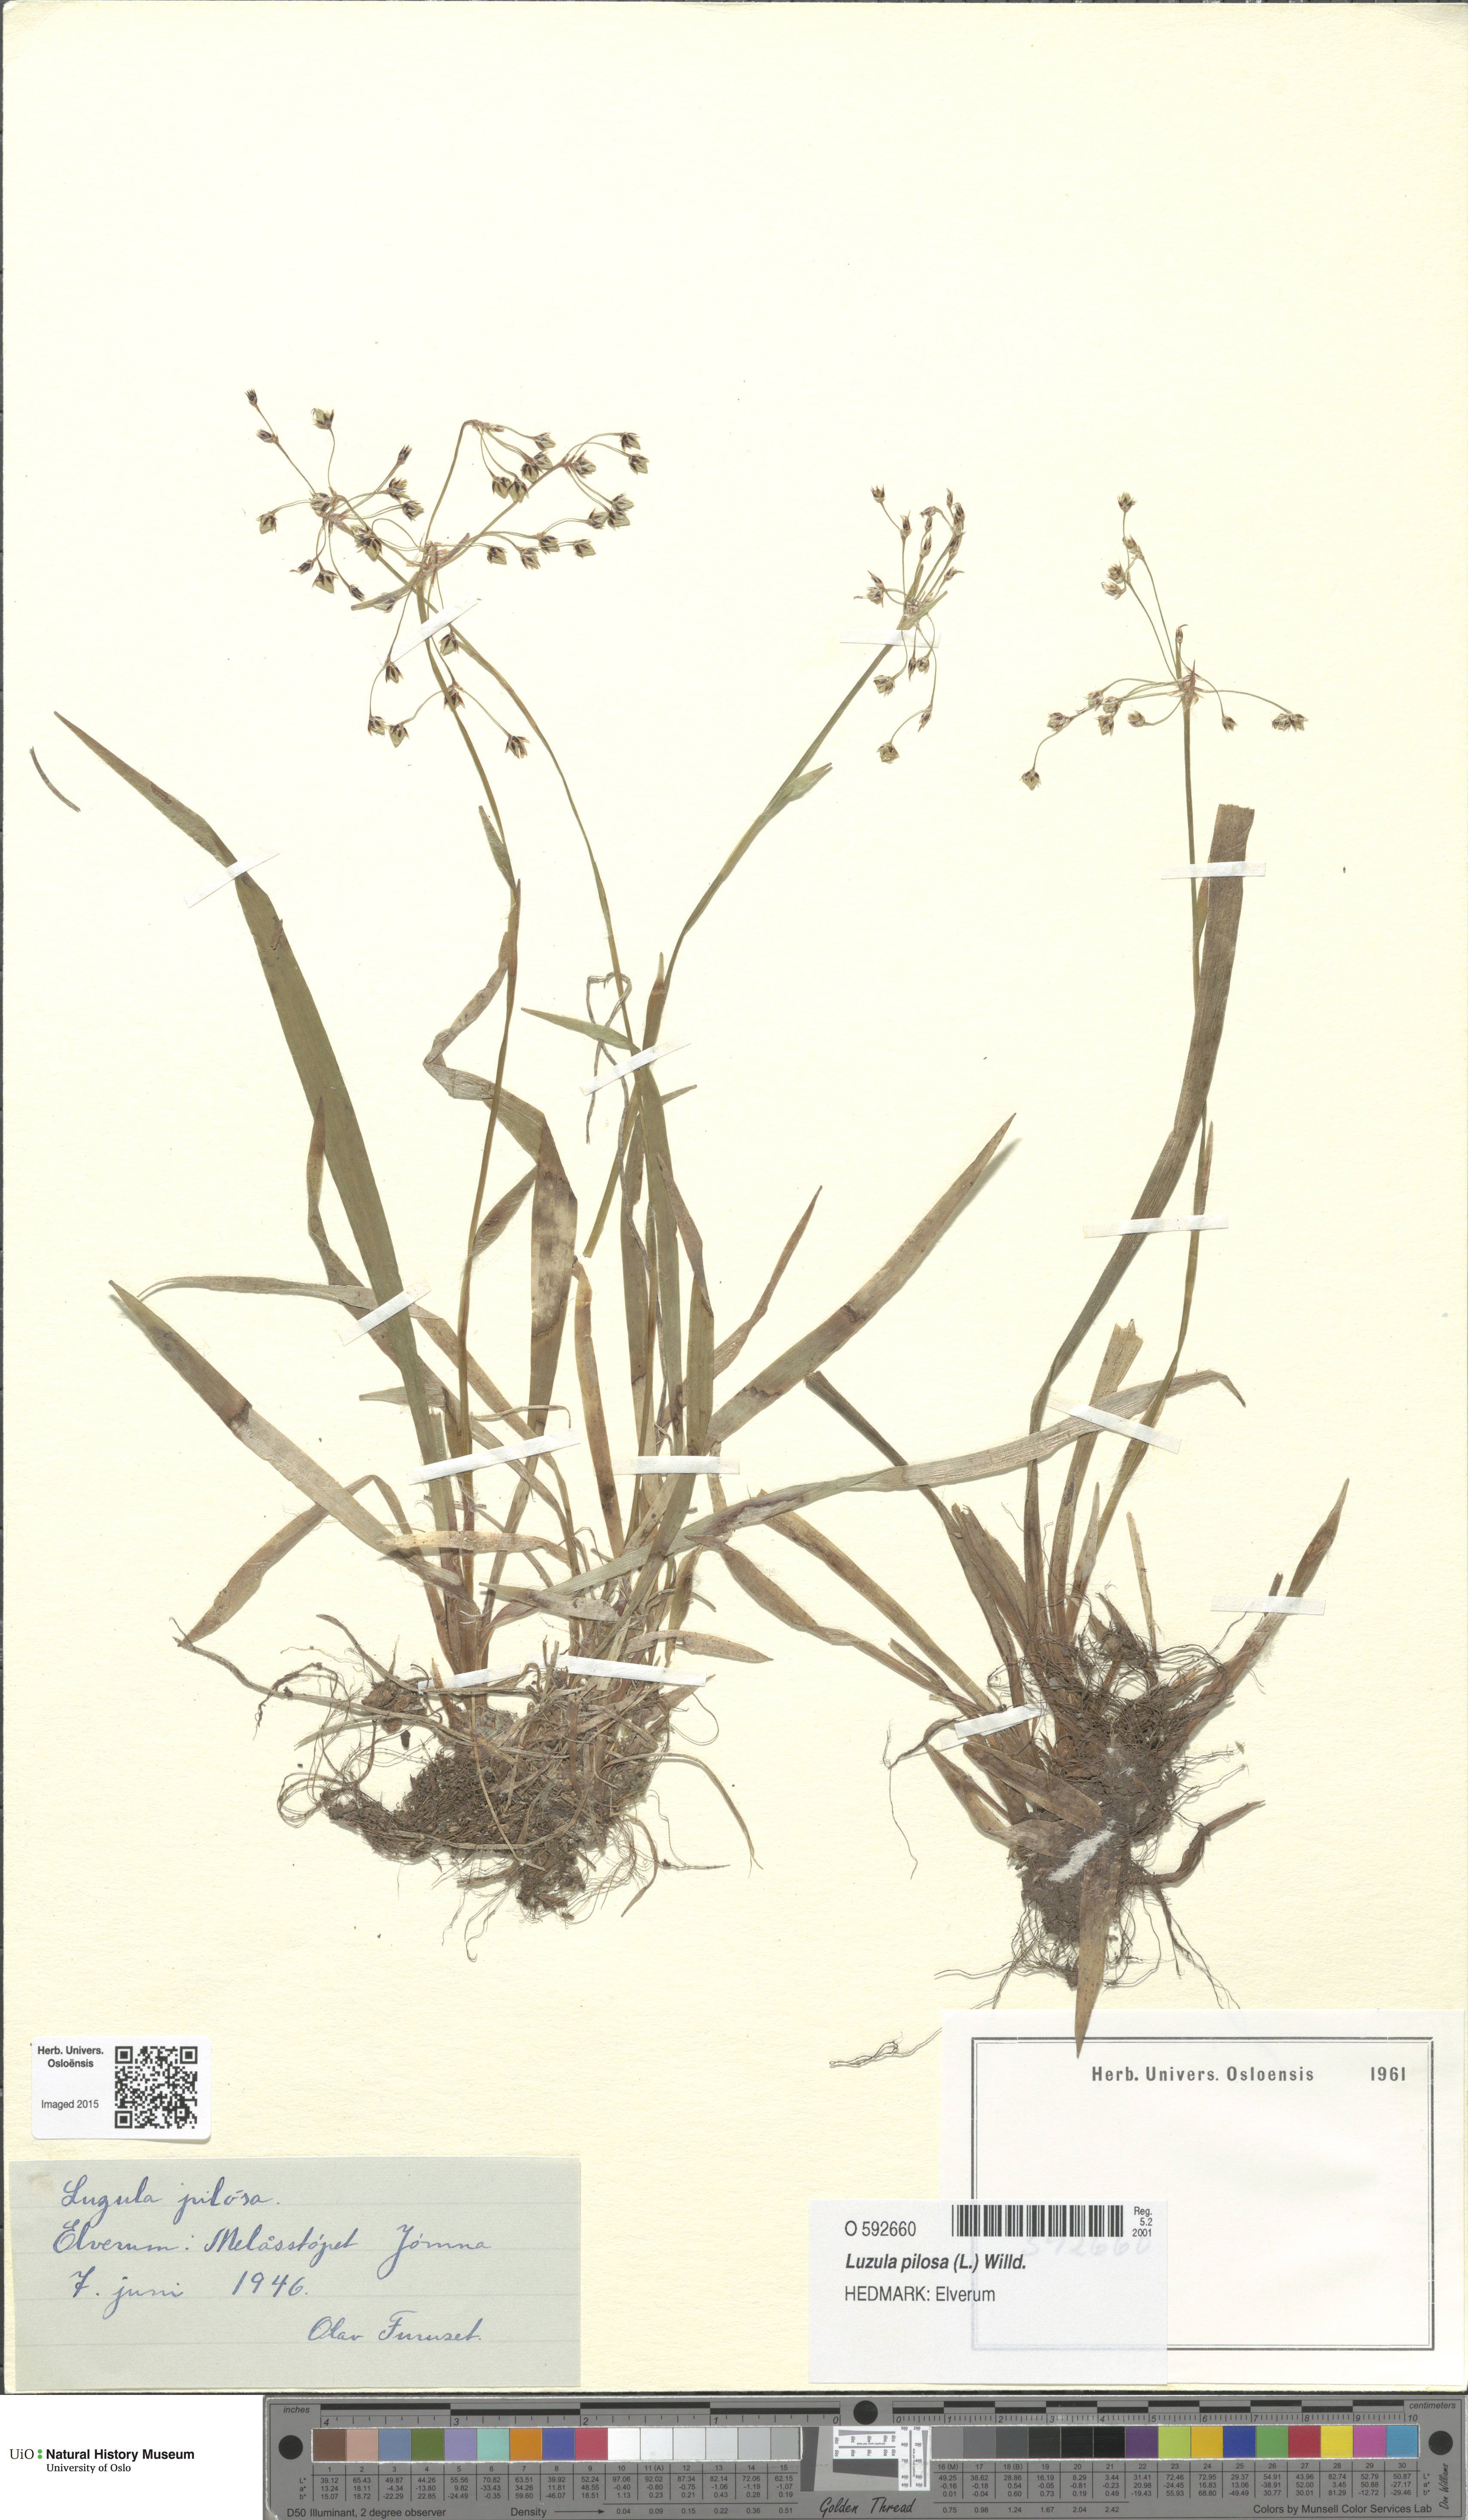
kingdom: Plantae
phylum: Tracheophyta
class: Liliopsida
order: Poales
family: Juncaceae
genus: Luzula
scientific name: Luzula pilosa
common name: Hairy wood-rush
